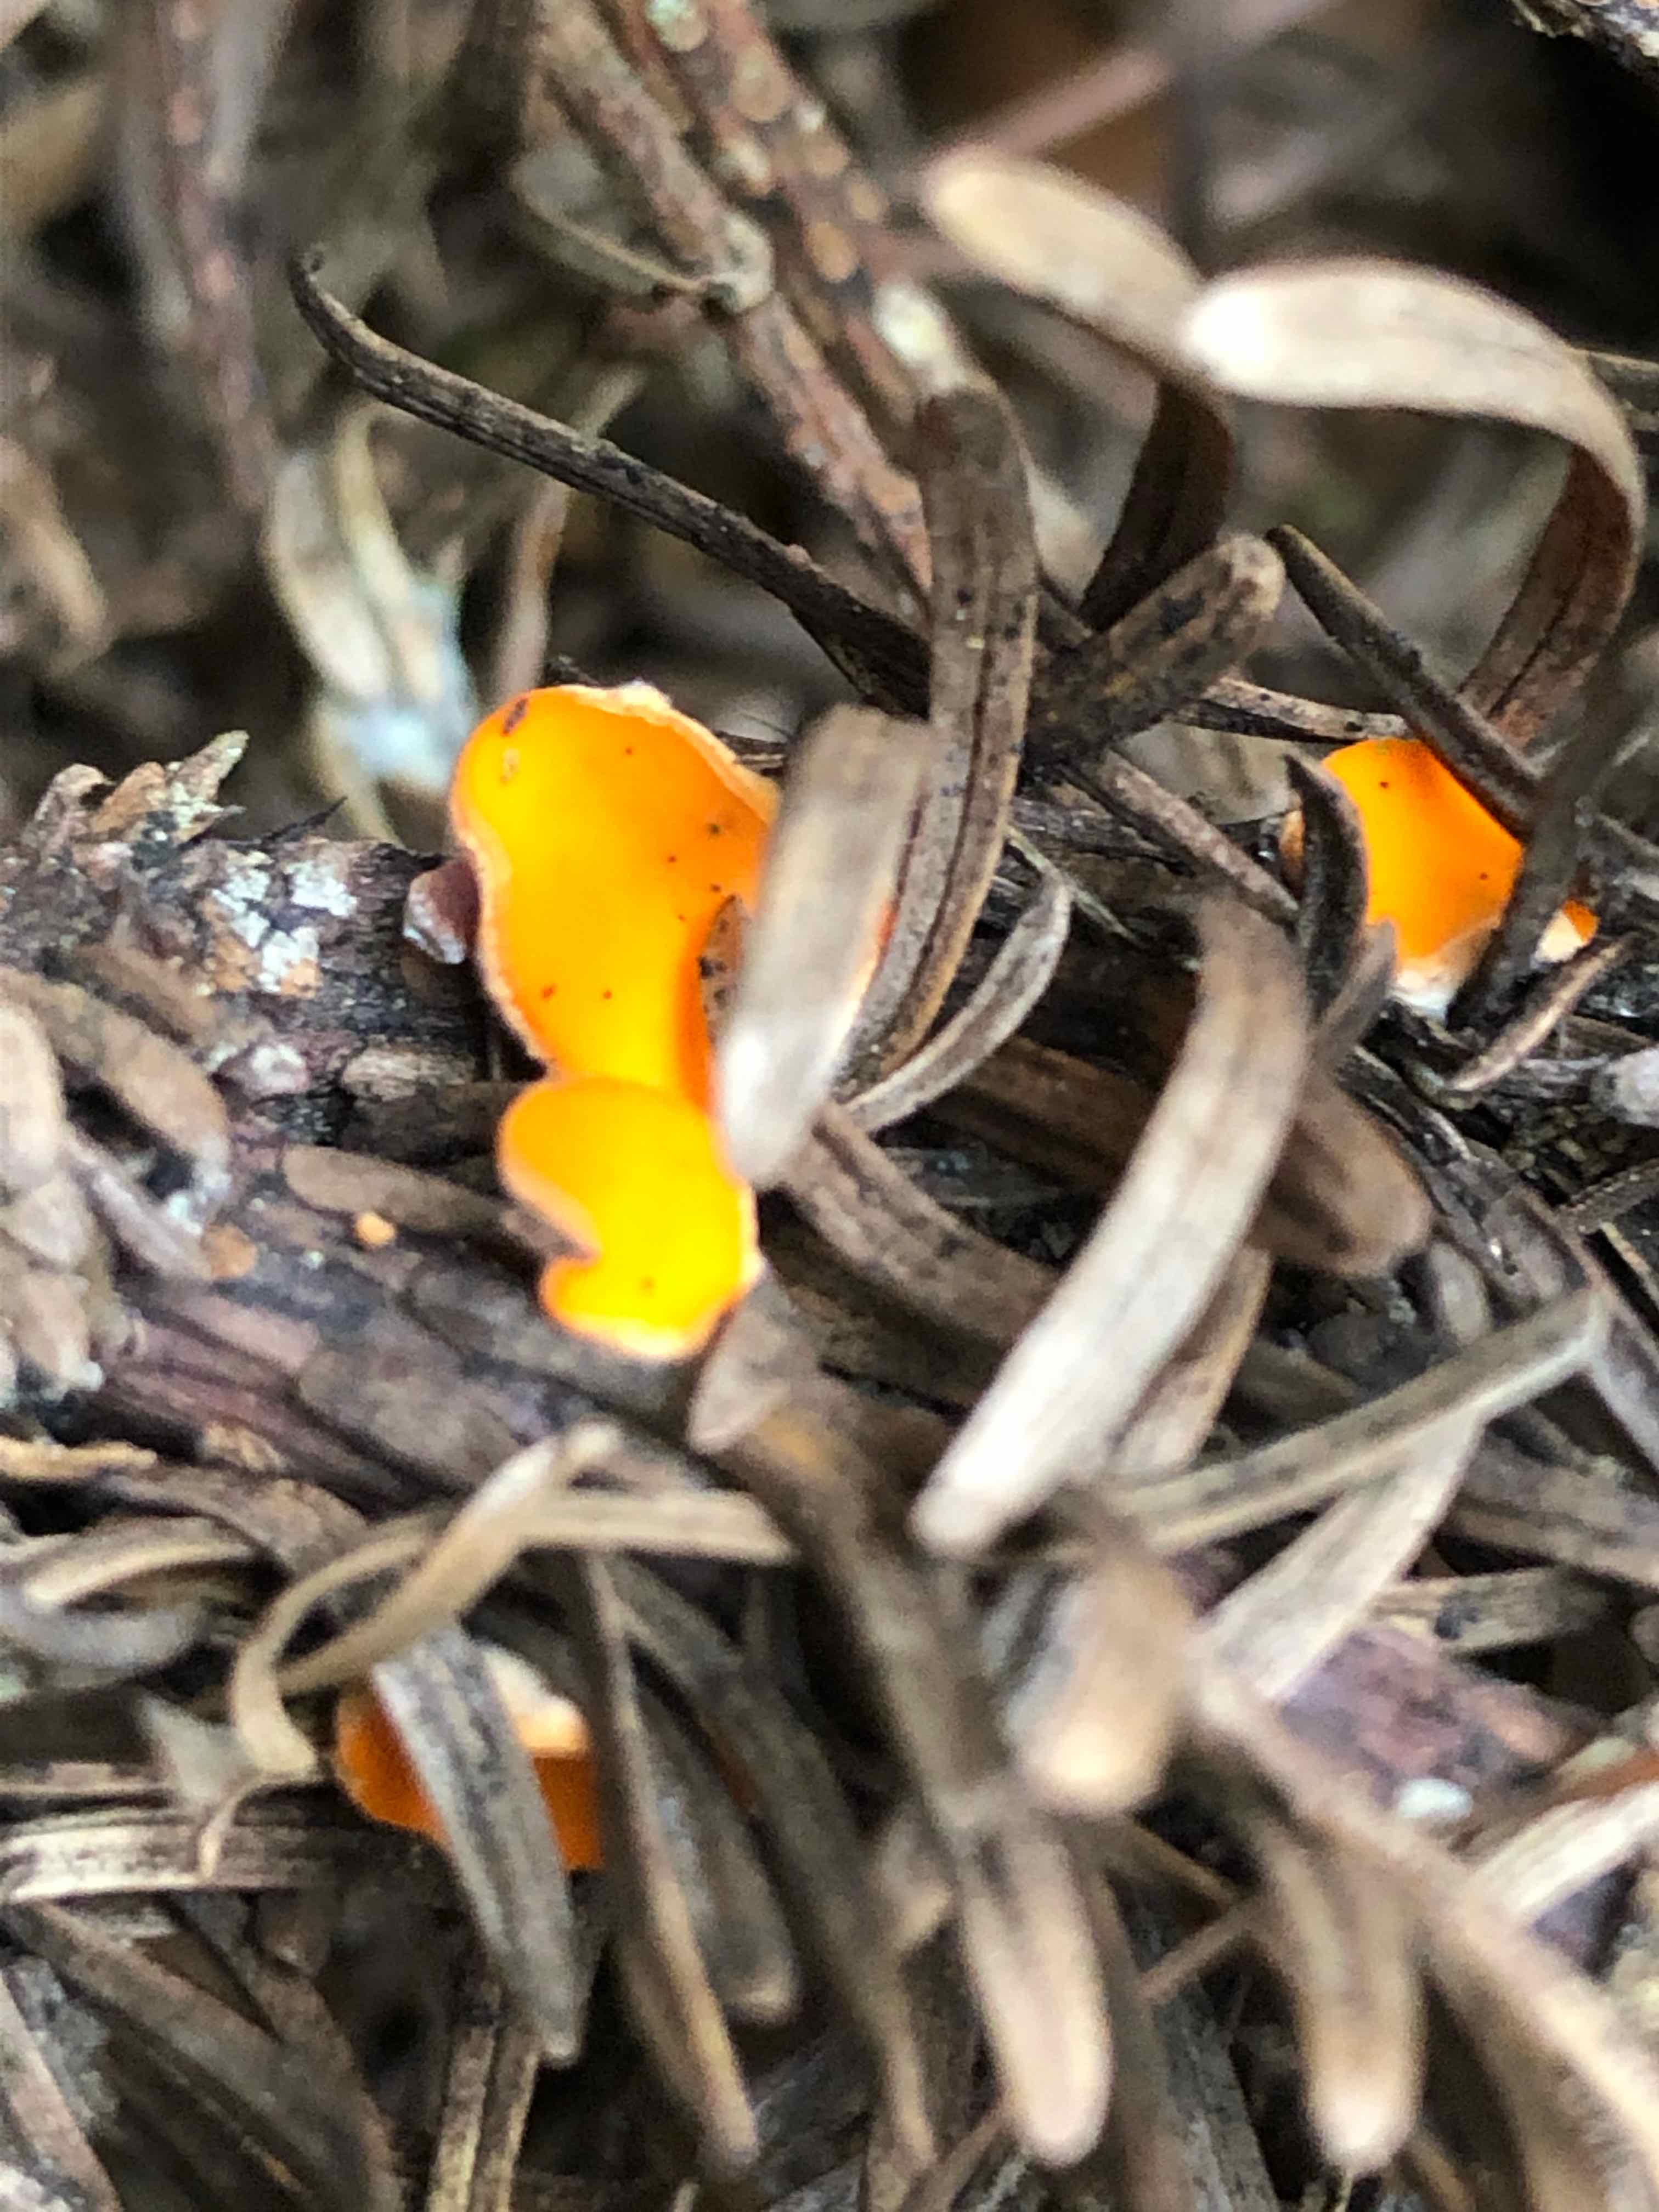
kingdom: Fungi
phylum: Ascomycota
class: Pezizomycetes
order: Pezizales
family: Sarcoscyphaceae
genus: Pithya
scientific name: Pithya vulgaris
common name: stor dukatbæger
